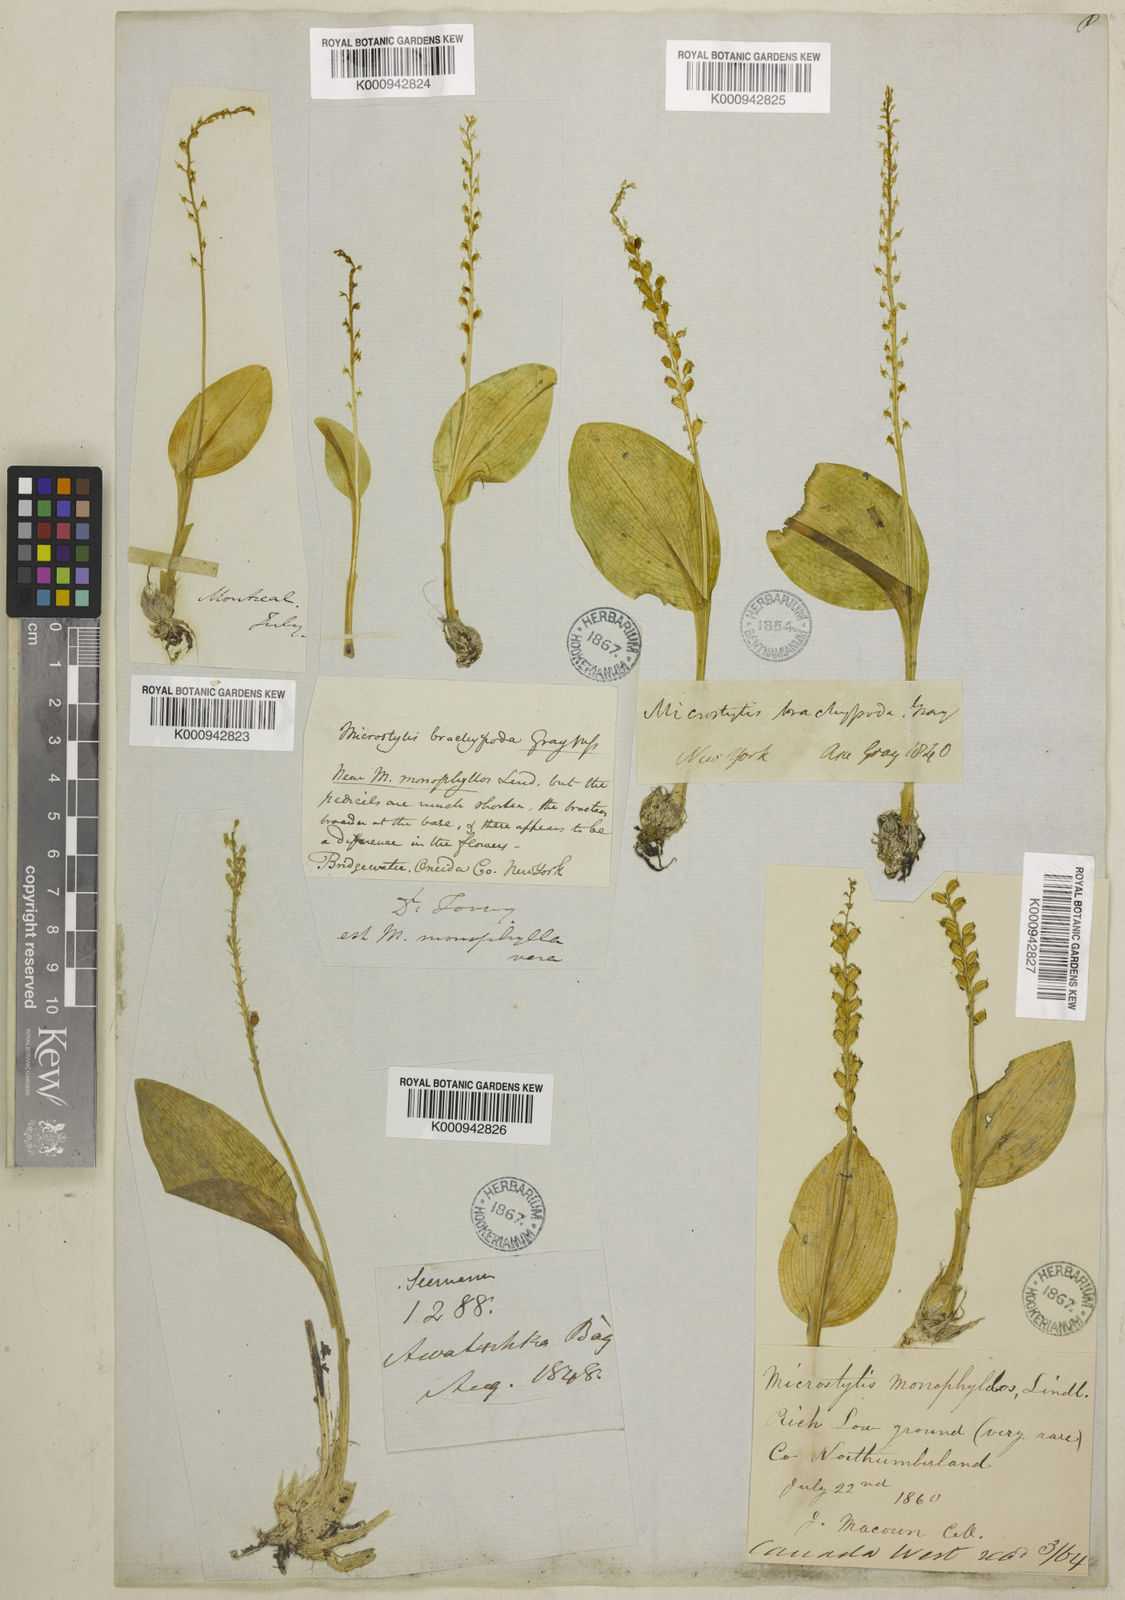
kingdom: Plantae
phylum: Tracheophyta
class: Liliopsida
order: Asparagales
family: Orchidaceae
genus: Malaxis
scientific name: Malaxis monophyllos
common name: White adder's-mouth
